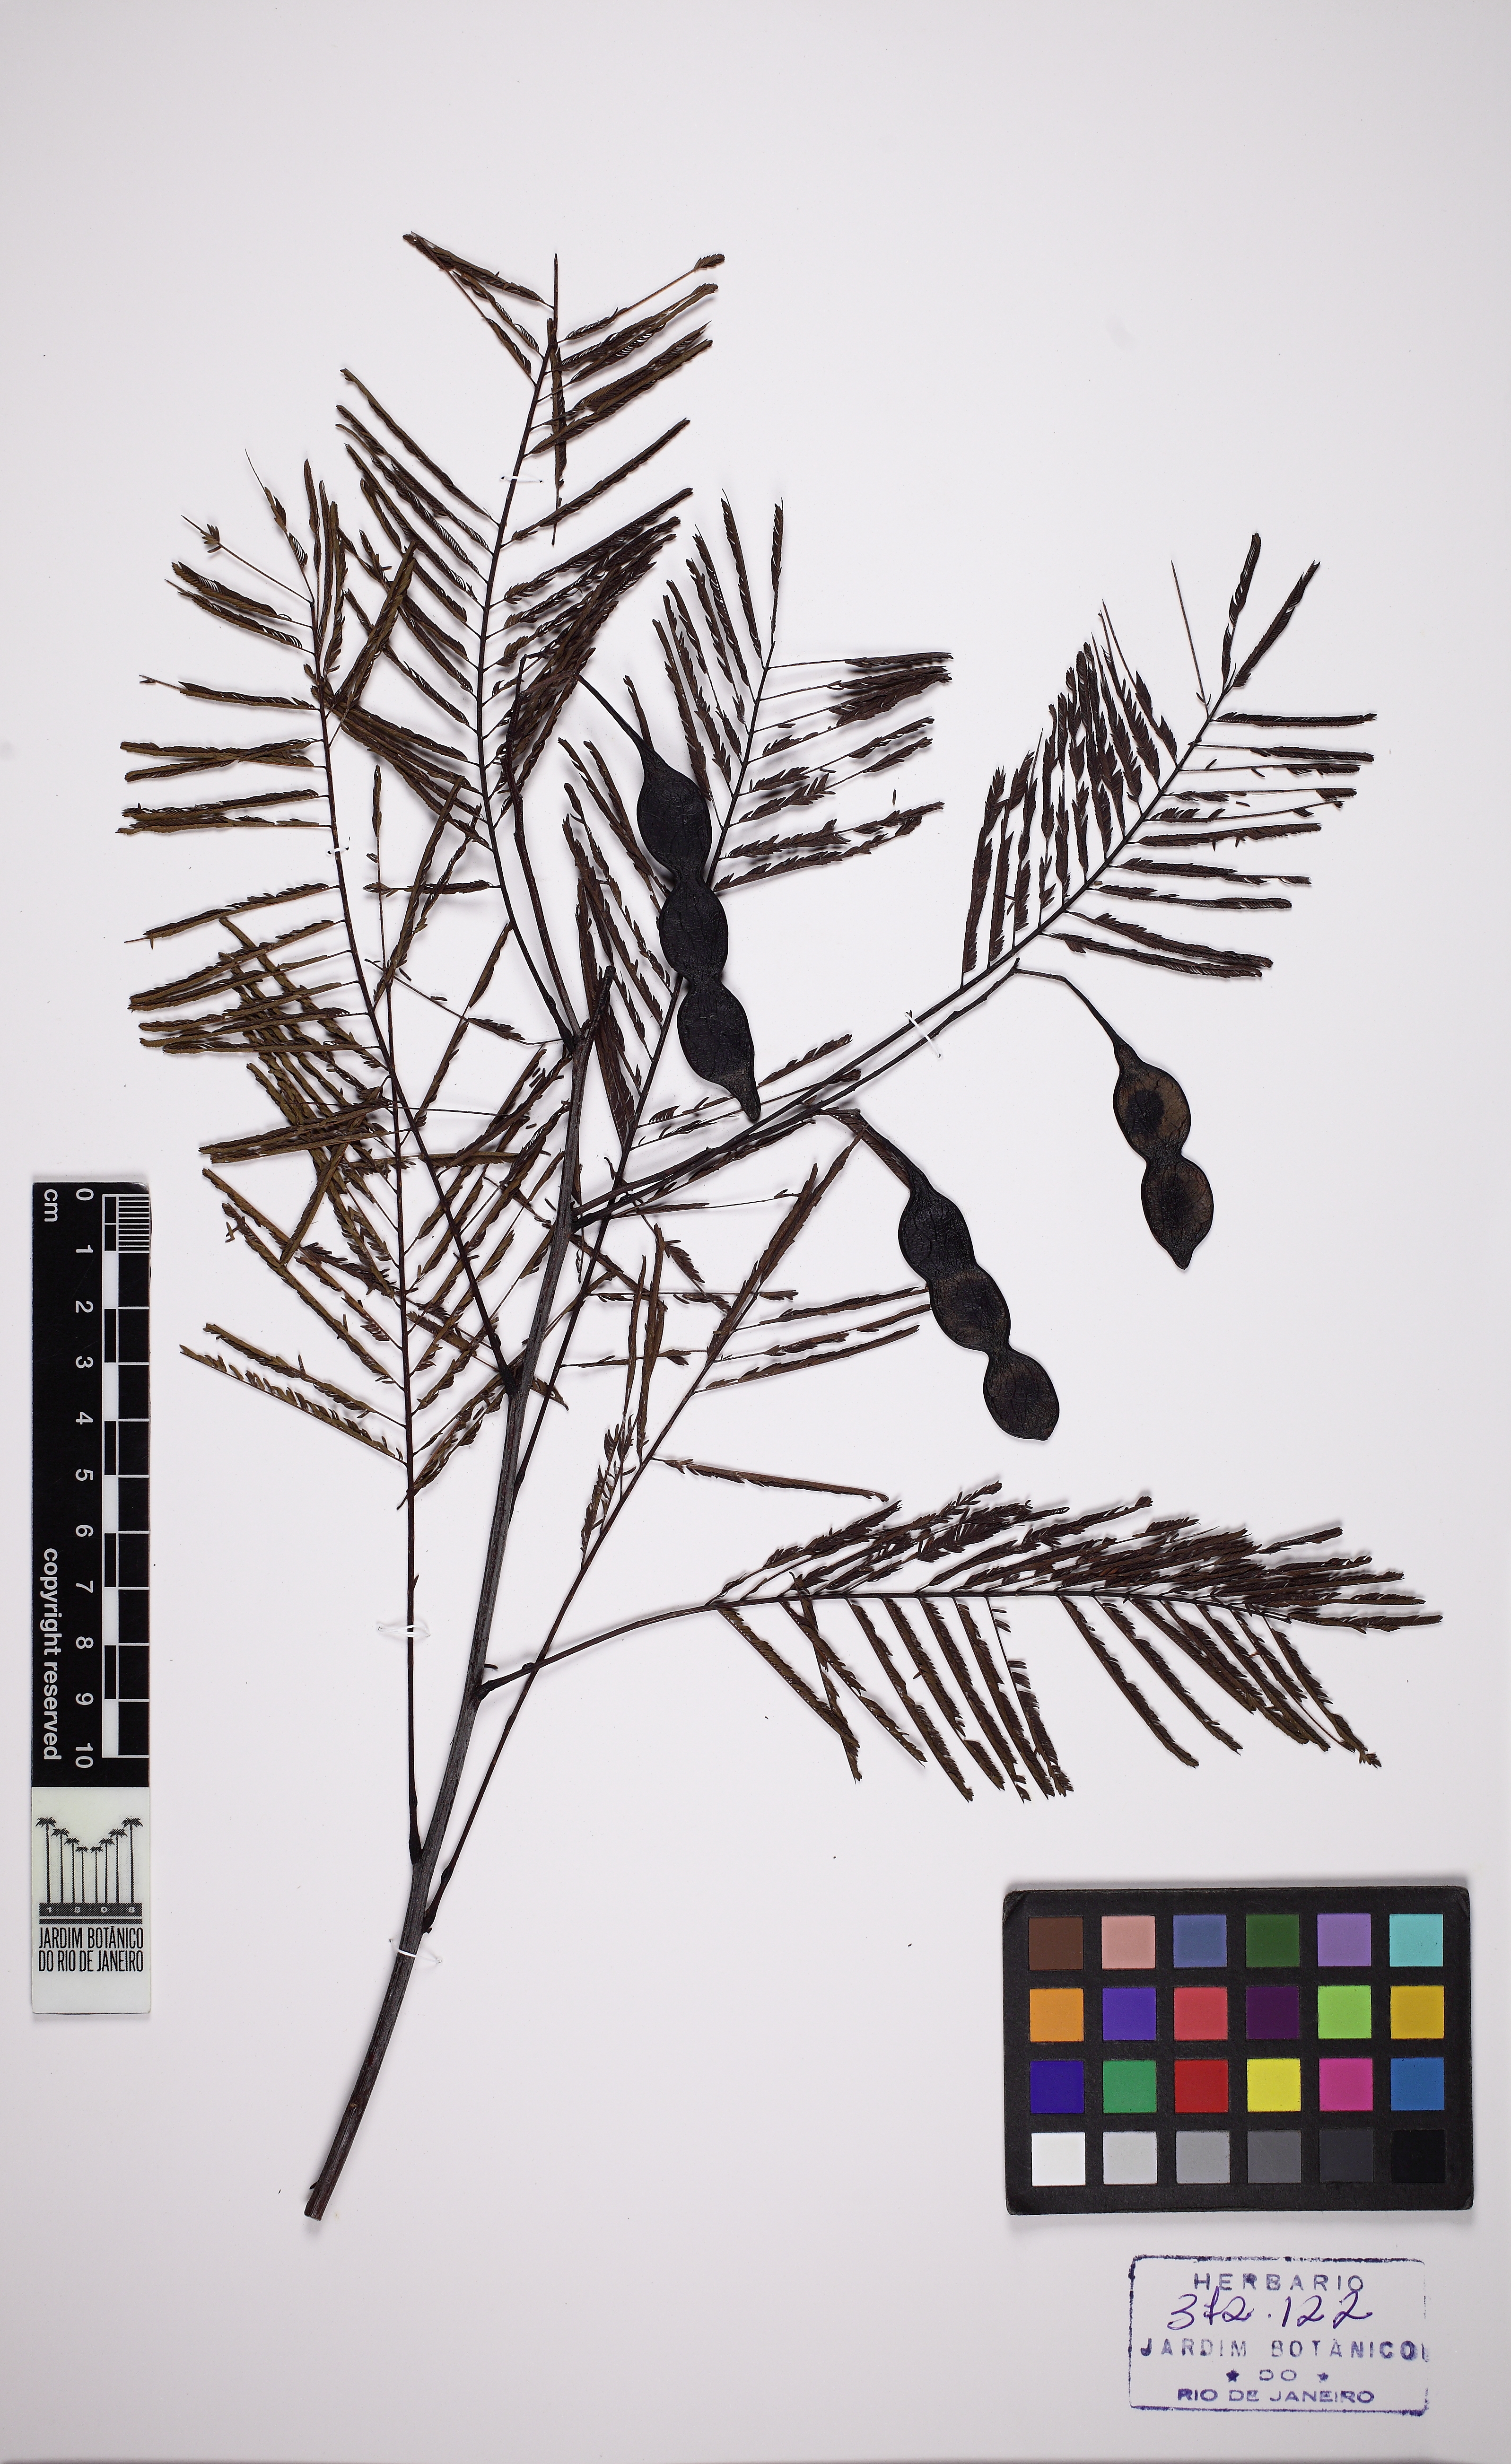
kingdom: Plantae
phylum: Tracheophyta
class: Magnoliopsida
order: Fabales
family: Fabaceae
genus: Anadenanthera
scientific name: Anadenanthera colubrina
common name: Curupay
